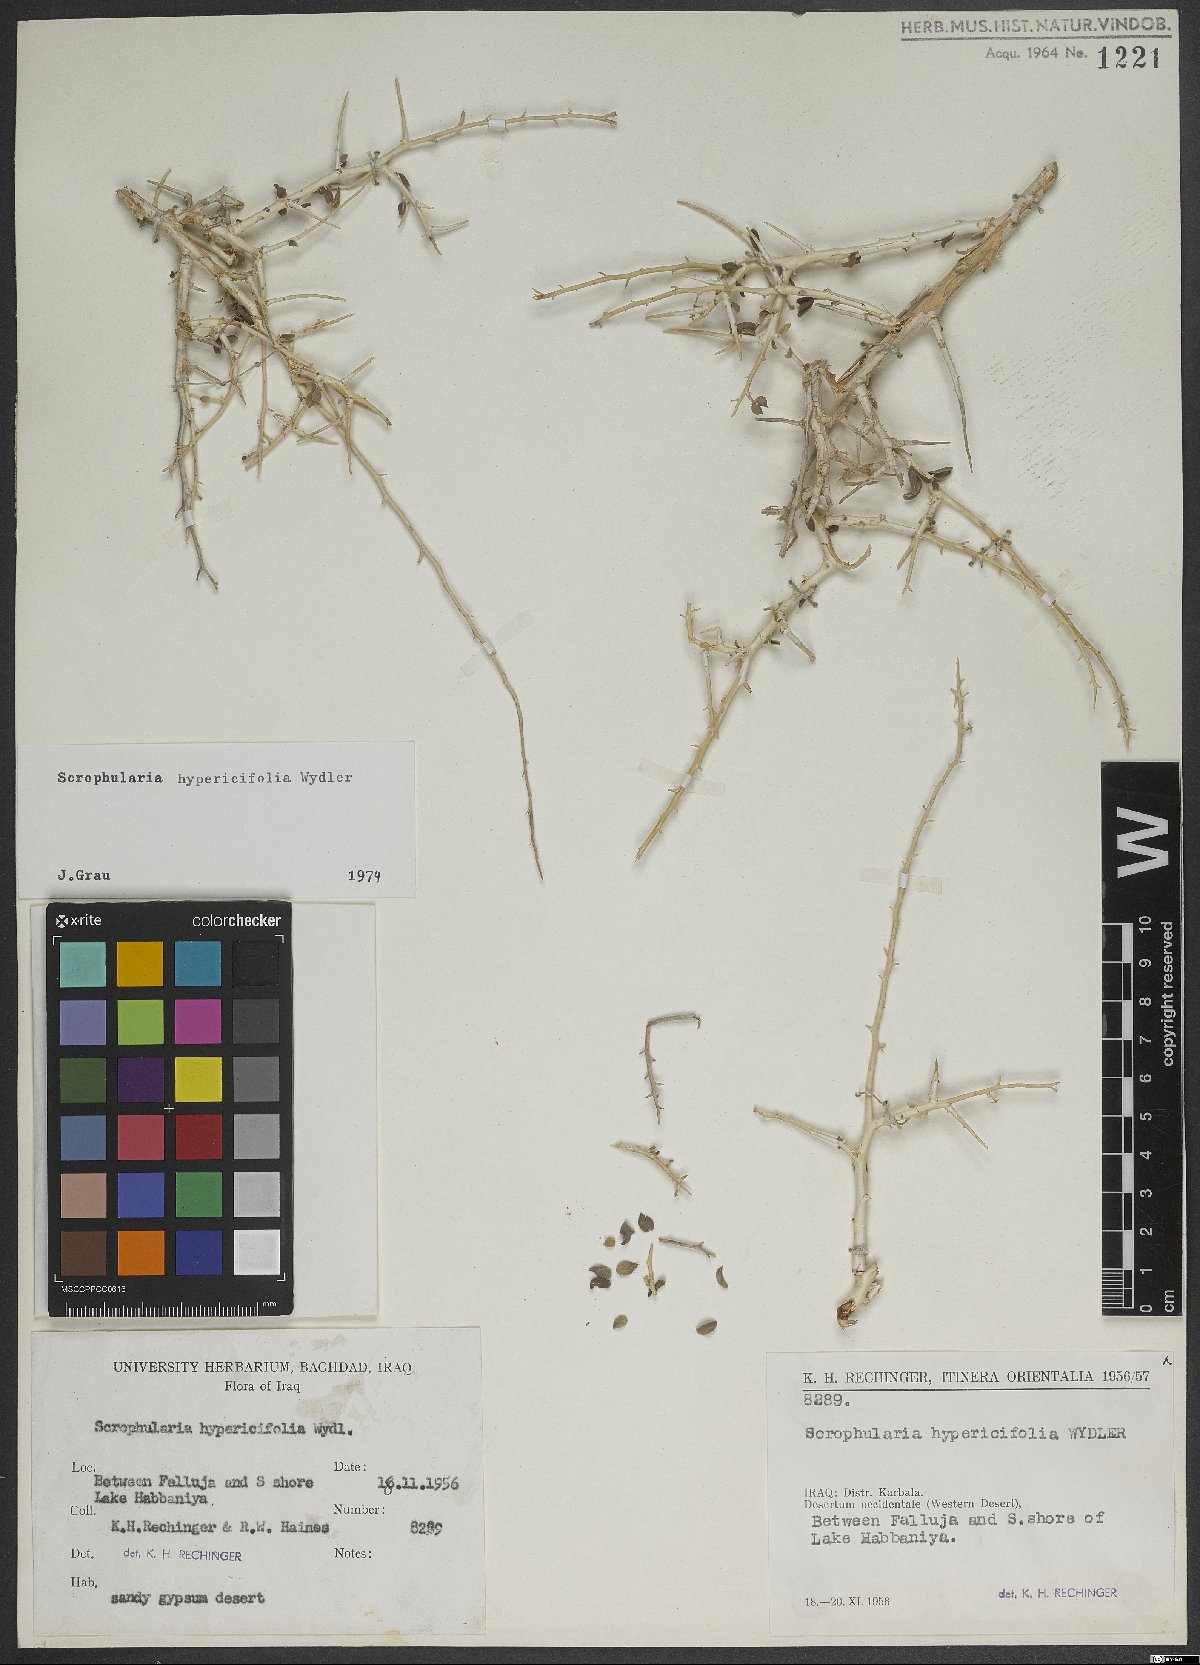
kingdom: Plantae
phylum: Tracheophyta
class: Magnoliopsida
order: Lamiales
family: Scrophulariaceae
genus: Scrophularia
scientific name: Scrophularia hypericifolia
